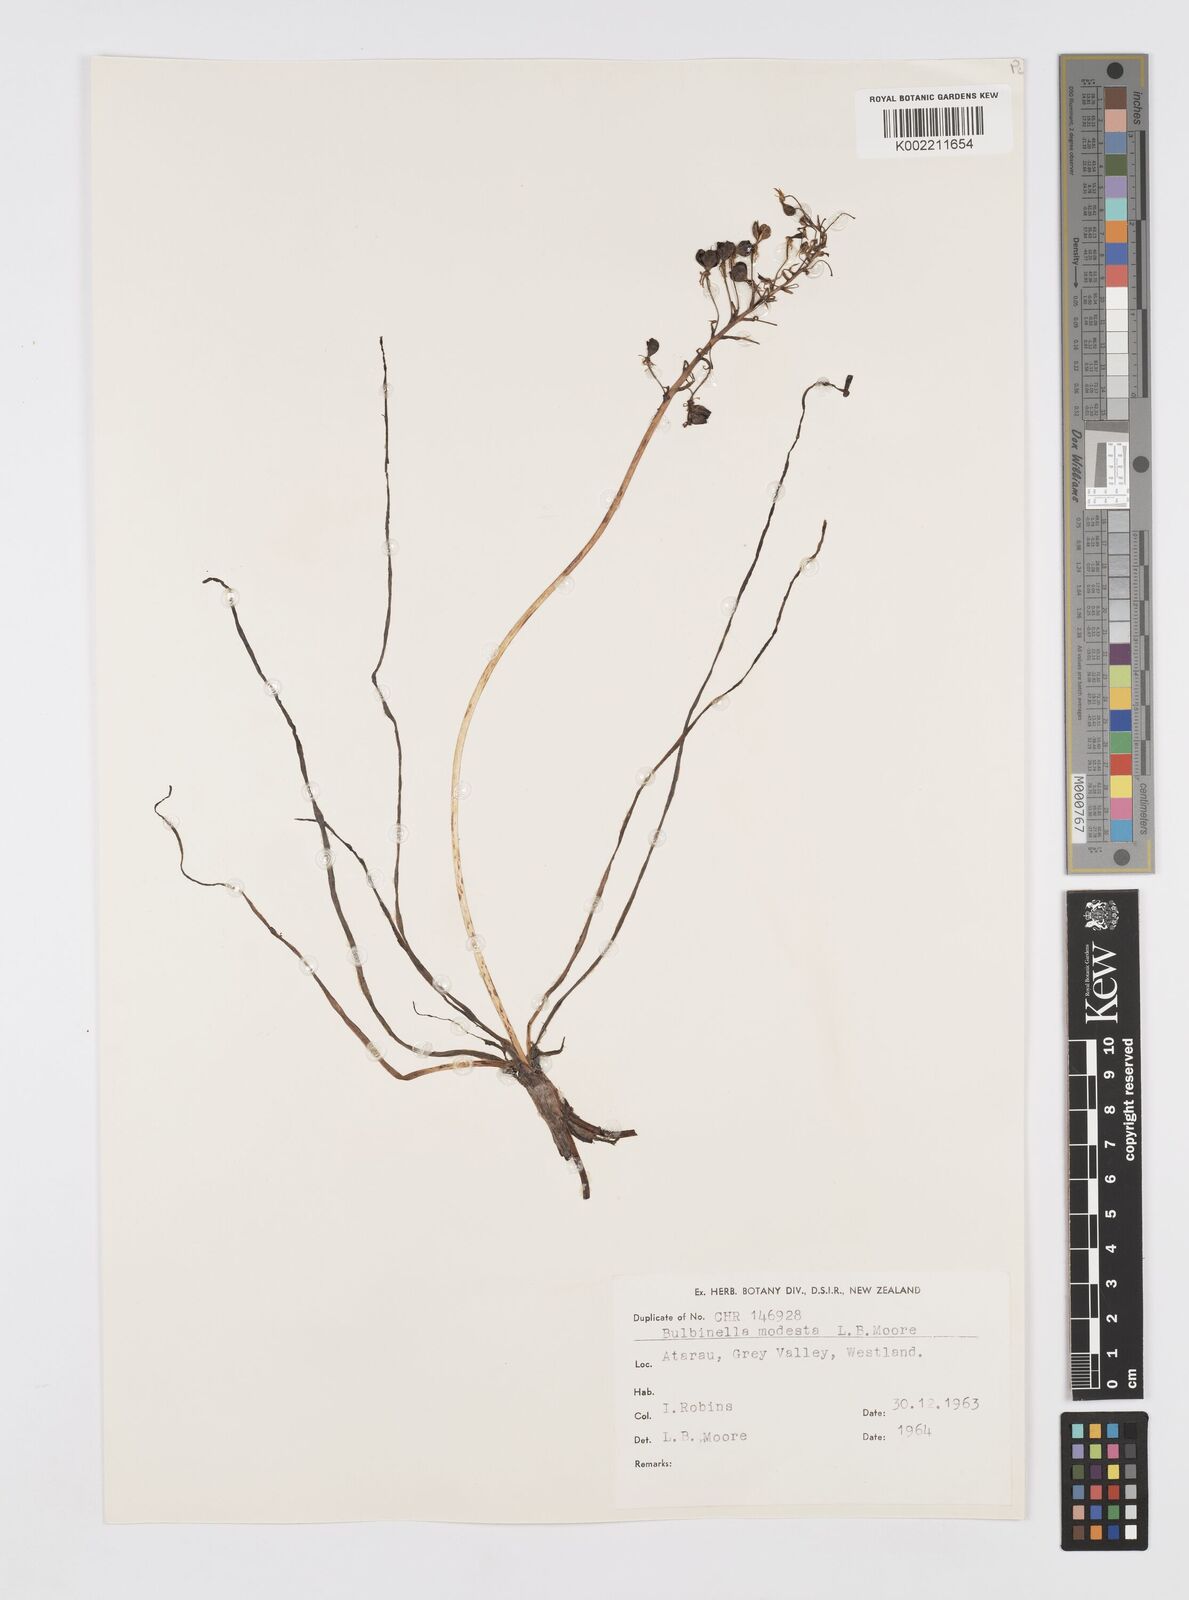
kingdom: Plantae
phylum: Tracheophyta
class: Liliopsida
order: Asparagales
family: Asphodelaceae
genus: Bulbinella
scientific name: Bulbinella modesta
